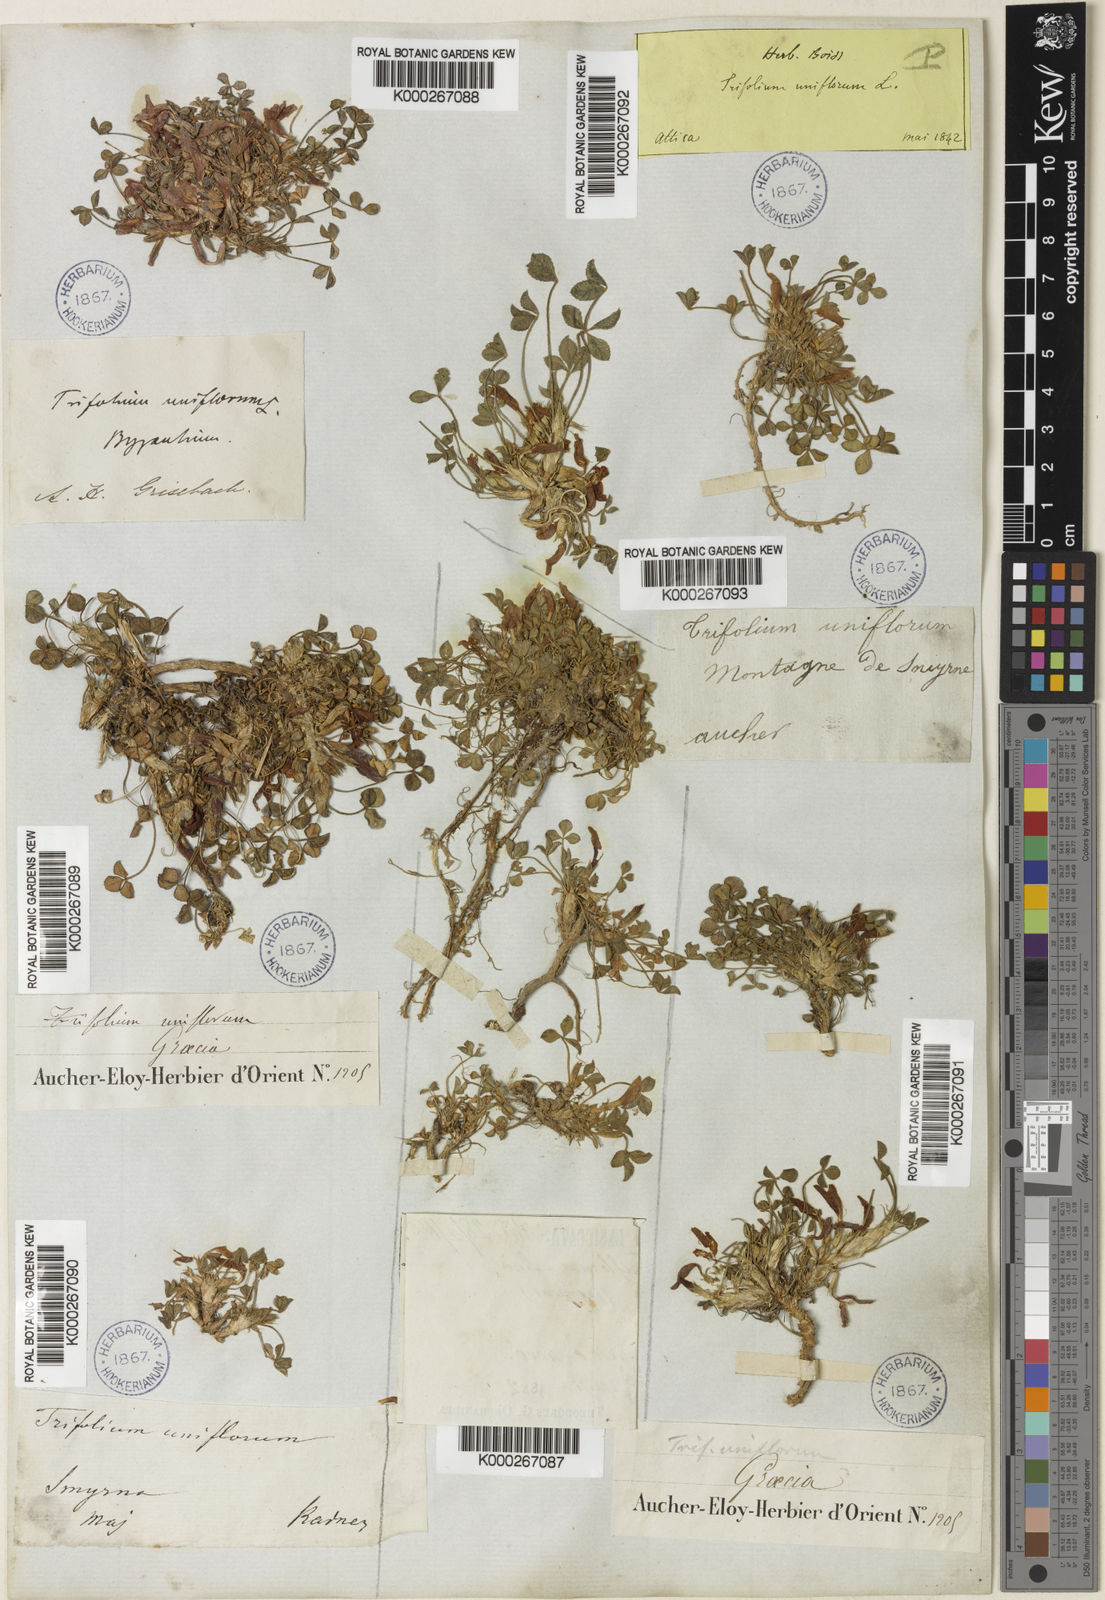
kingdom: Plantae
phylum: Tracheophyta
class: Magnoliopsida
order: Fabales
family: Fabaceae
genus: Trifolium
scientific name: Trifolium uniflorum
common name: One-flower clover
